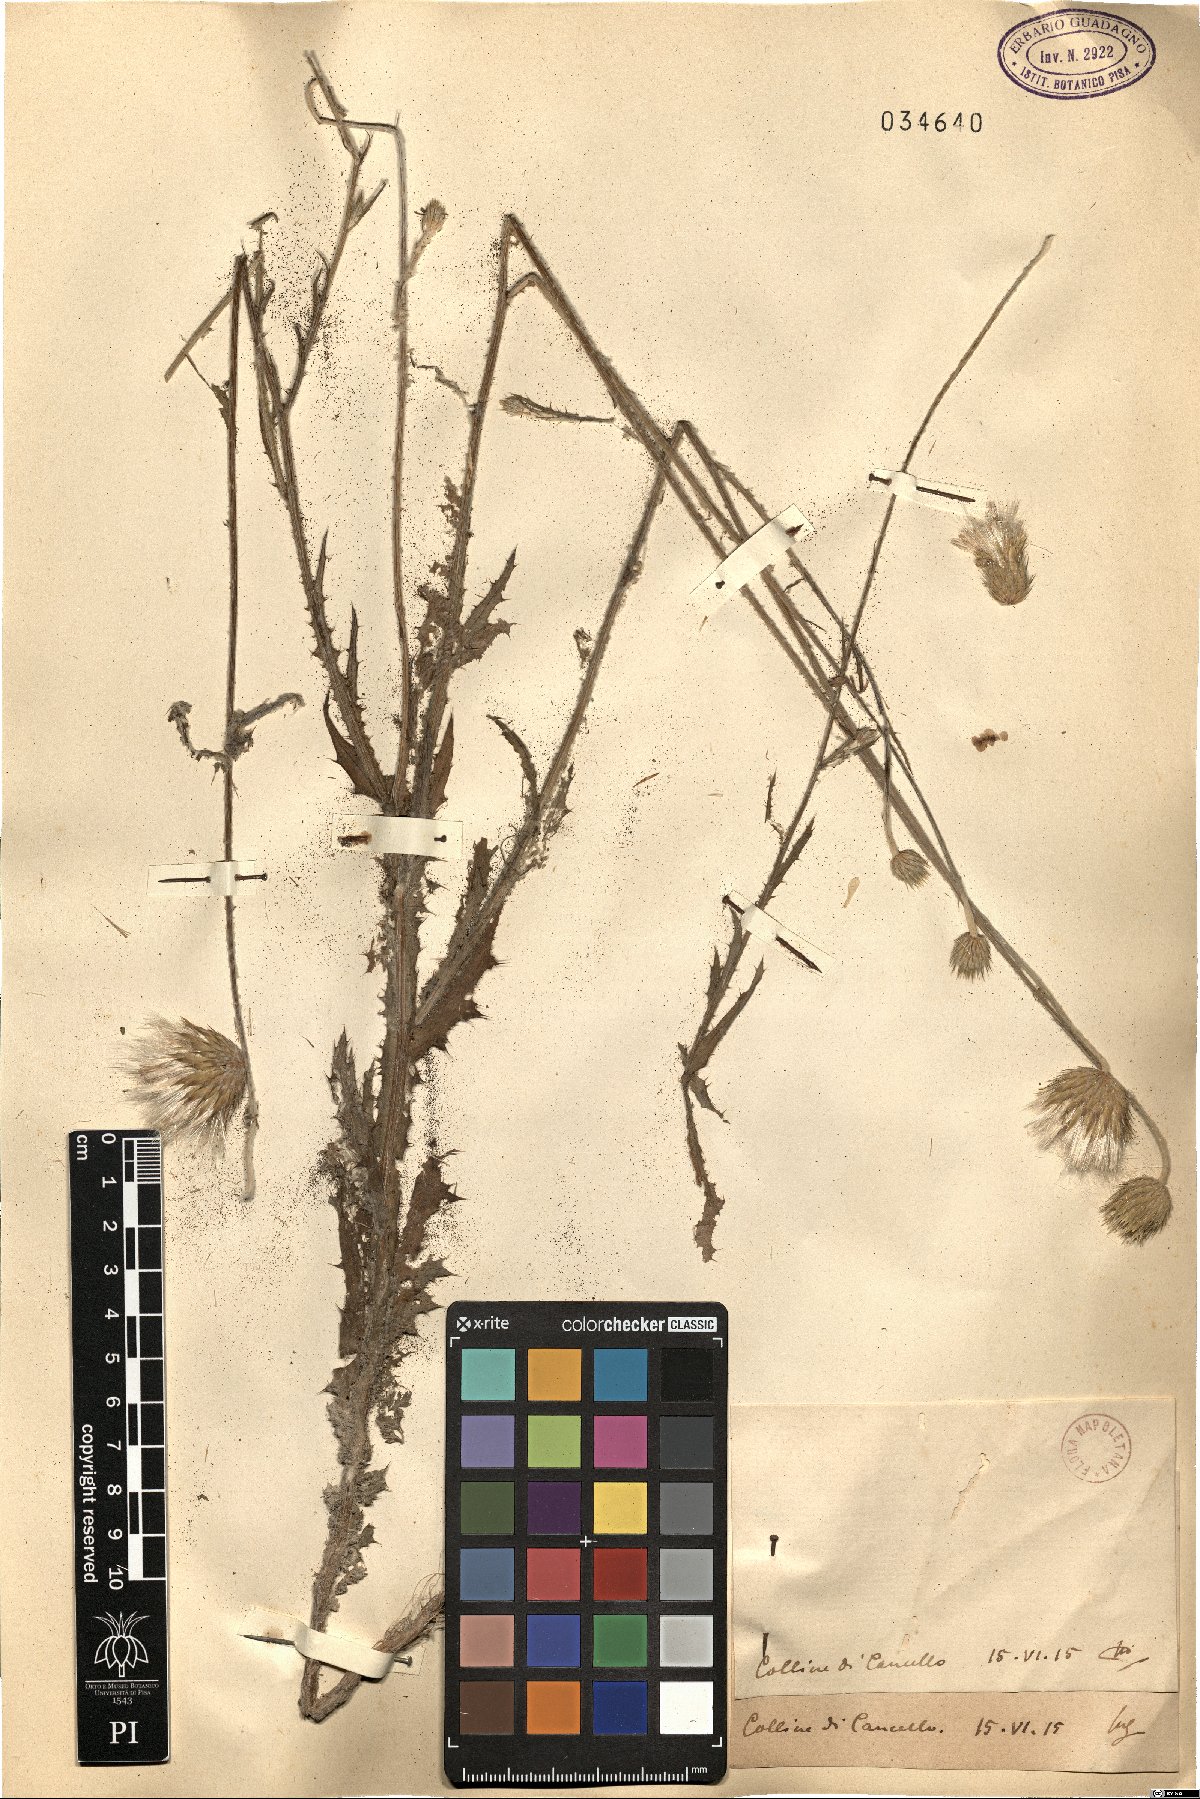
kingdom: Plantae
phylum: Tracheophyta
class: Magnoliopsida
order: Asterales
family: Asteraceae
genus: Galactites
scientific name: Galactites
